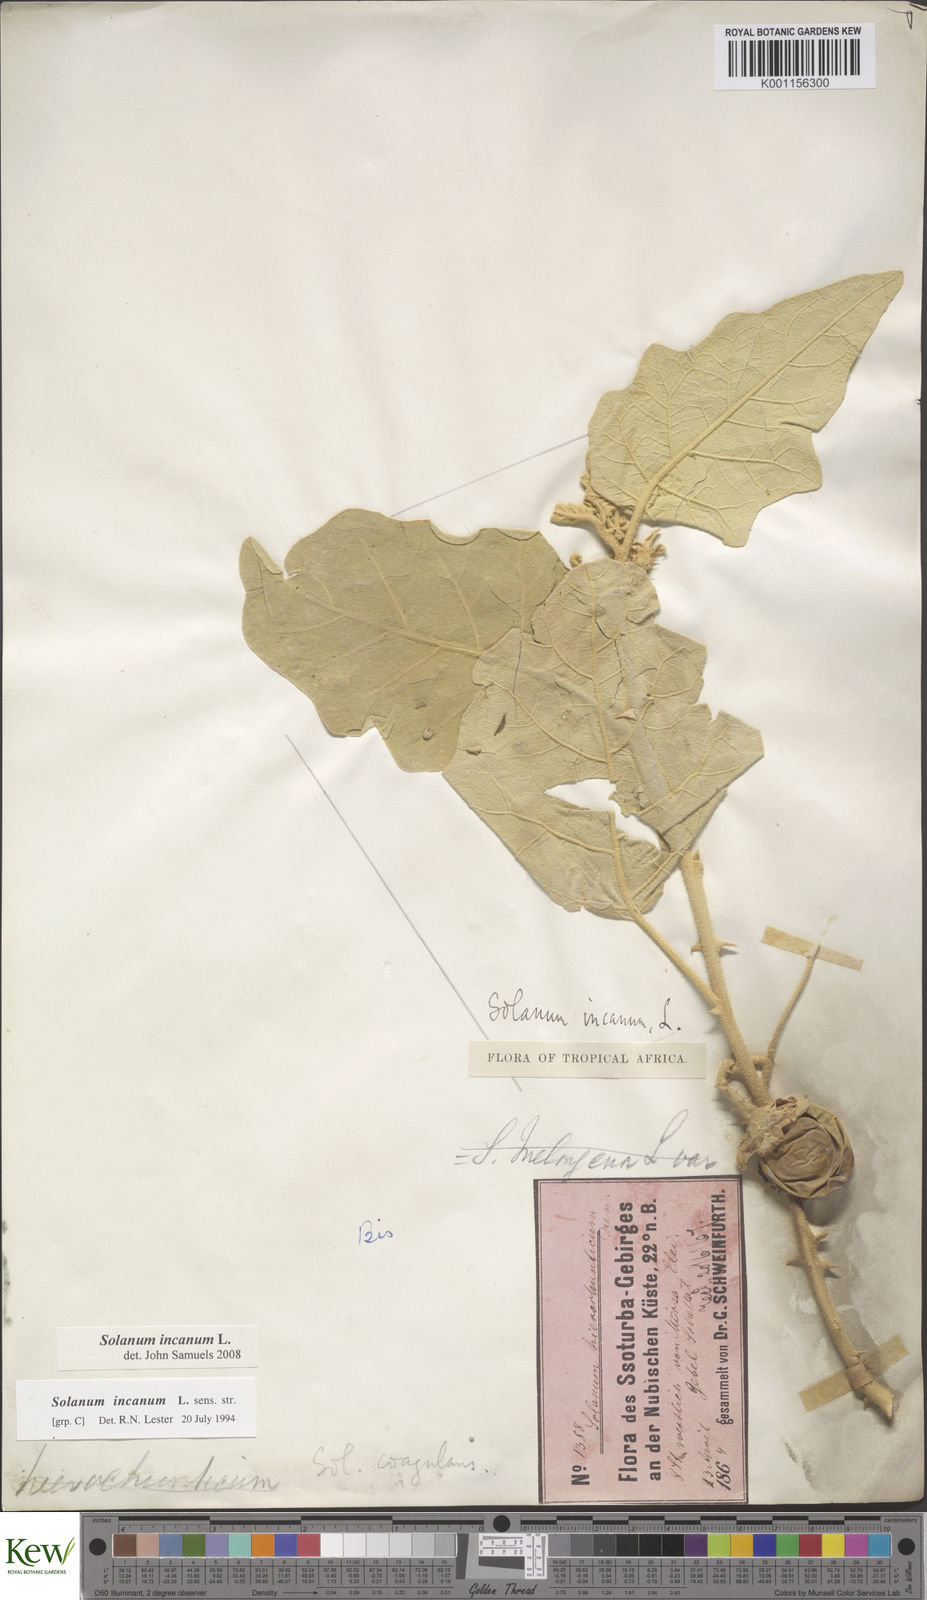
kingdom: Plantae
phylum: Tracheophyta
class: Magnoliopsida
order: Solanales
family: Solanaceae
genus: Solanum
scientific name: Solanum incanum
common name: Bitter apple
